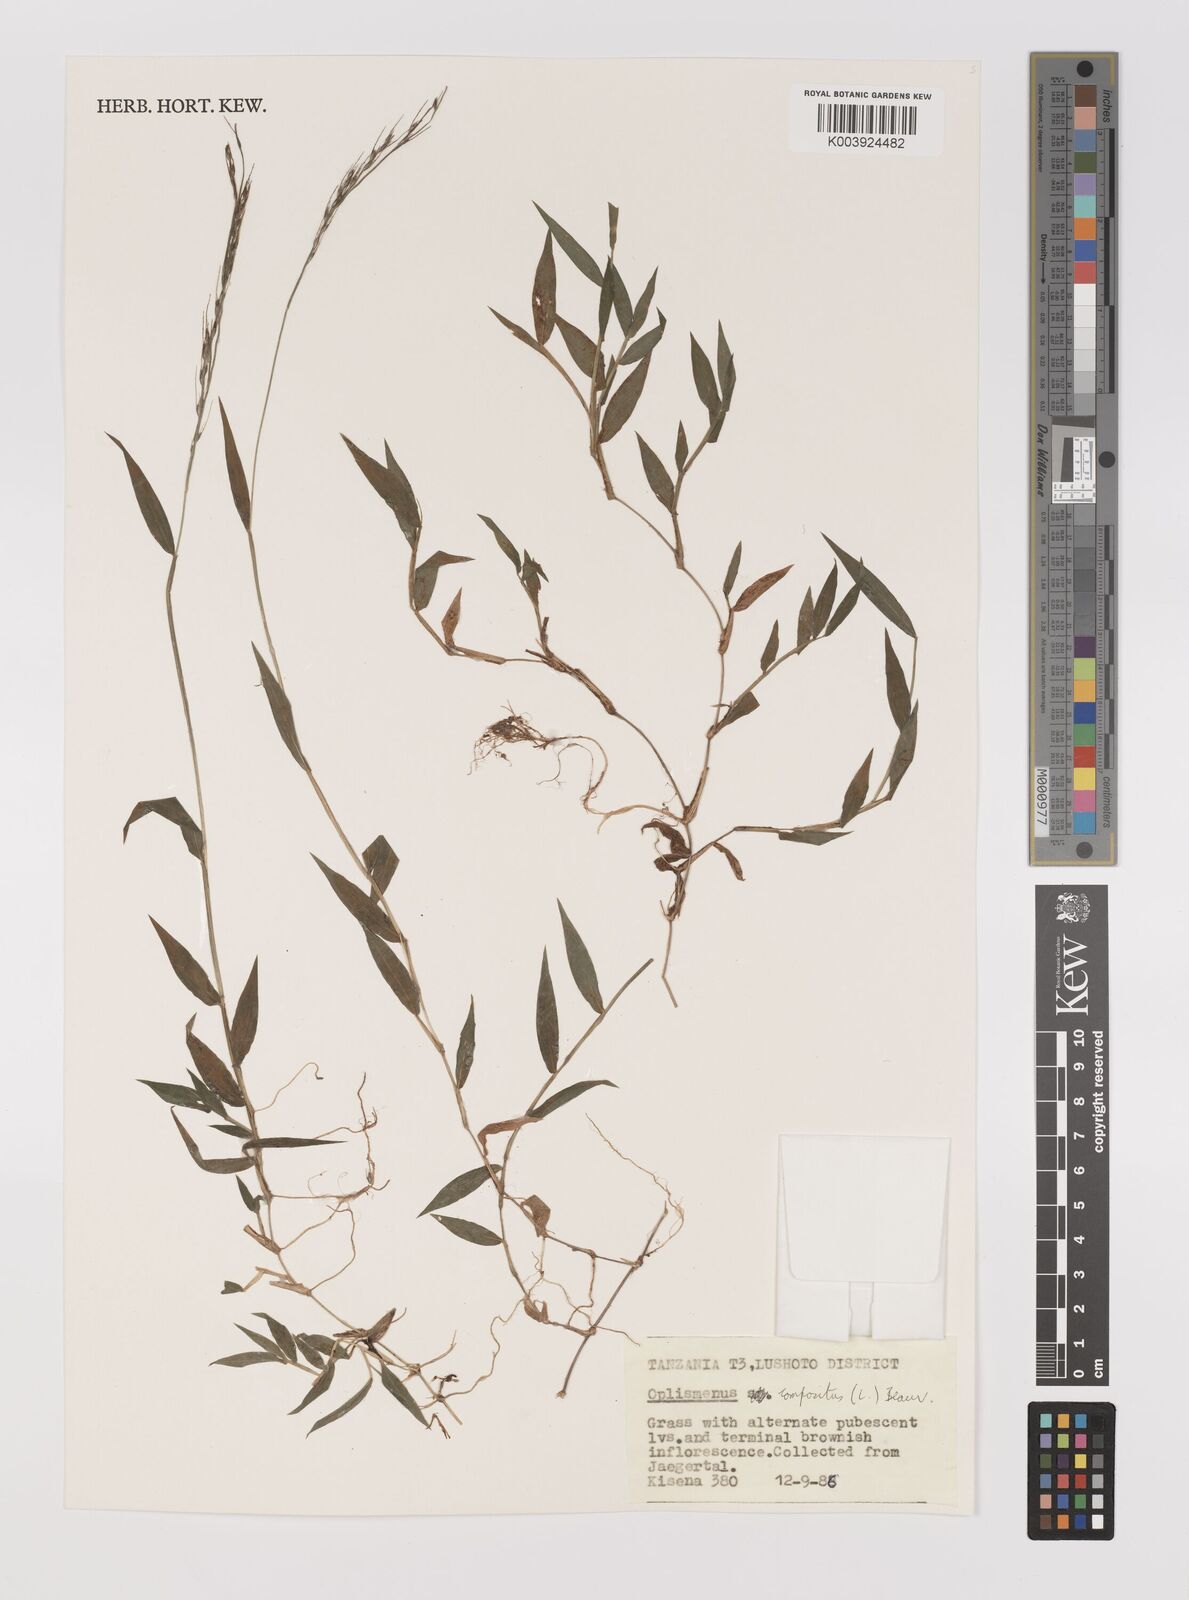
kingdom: Plantae
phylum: Tracheophyta
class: Liliopsida
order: Poales
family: Poaceae
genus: Oplismenus
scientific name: Oplismenus compositus
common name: Running mountain grass
